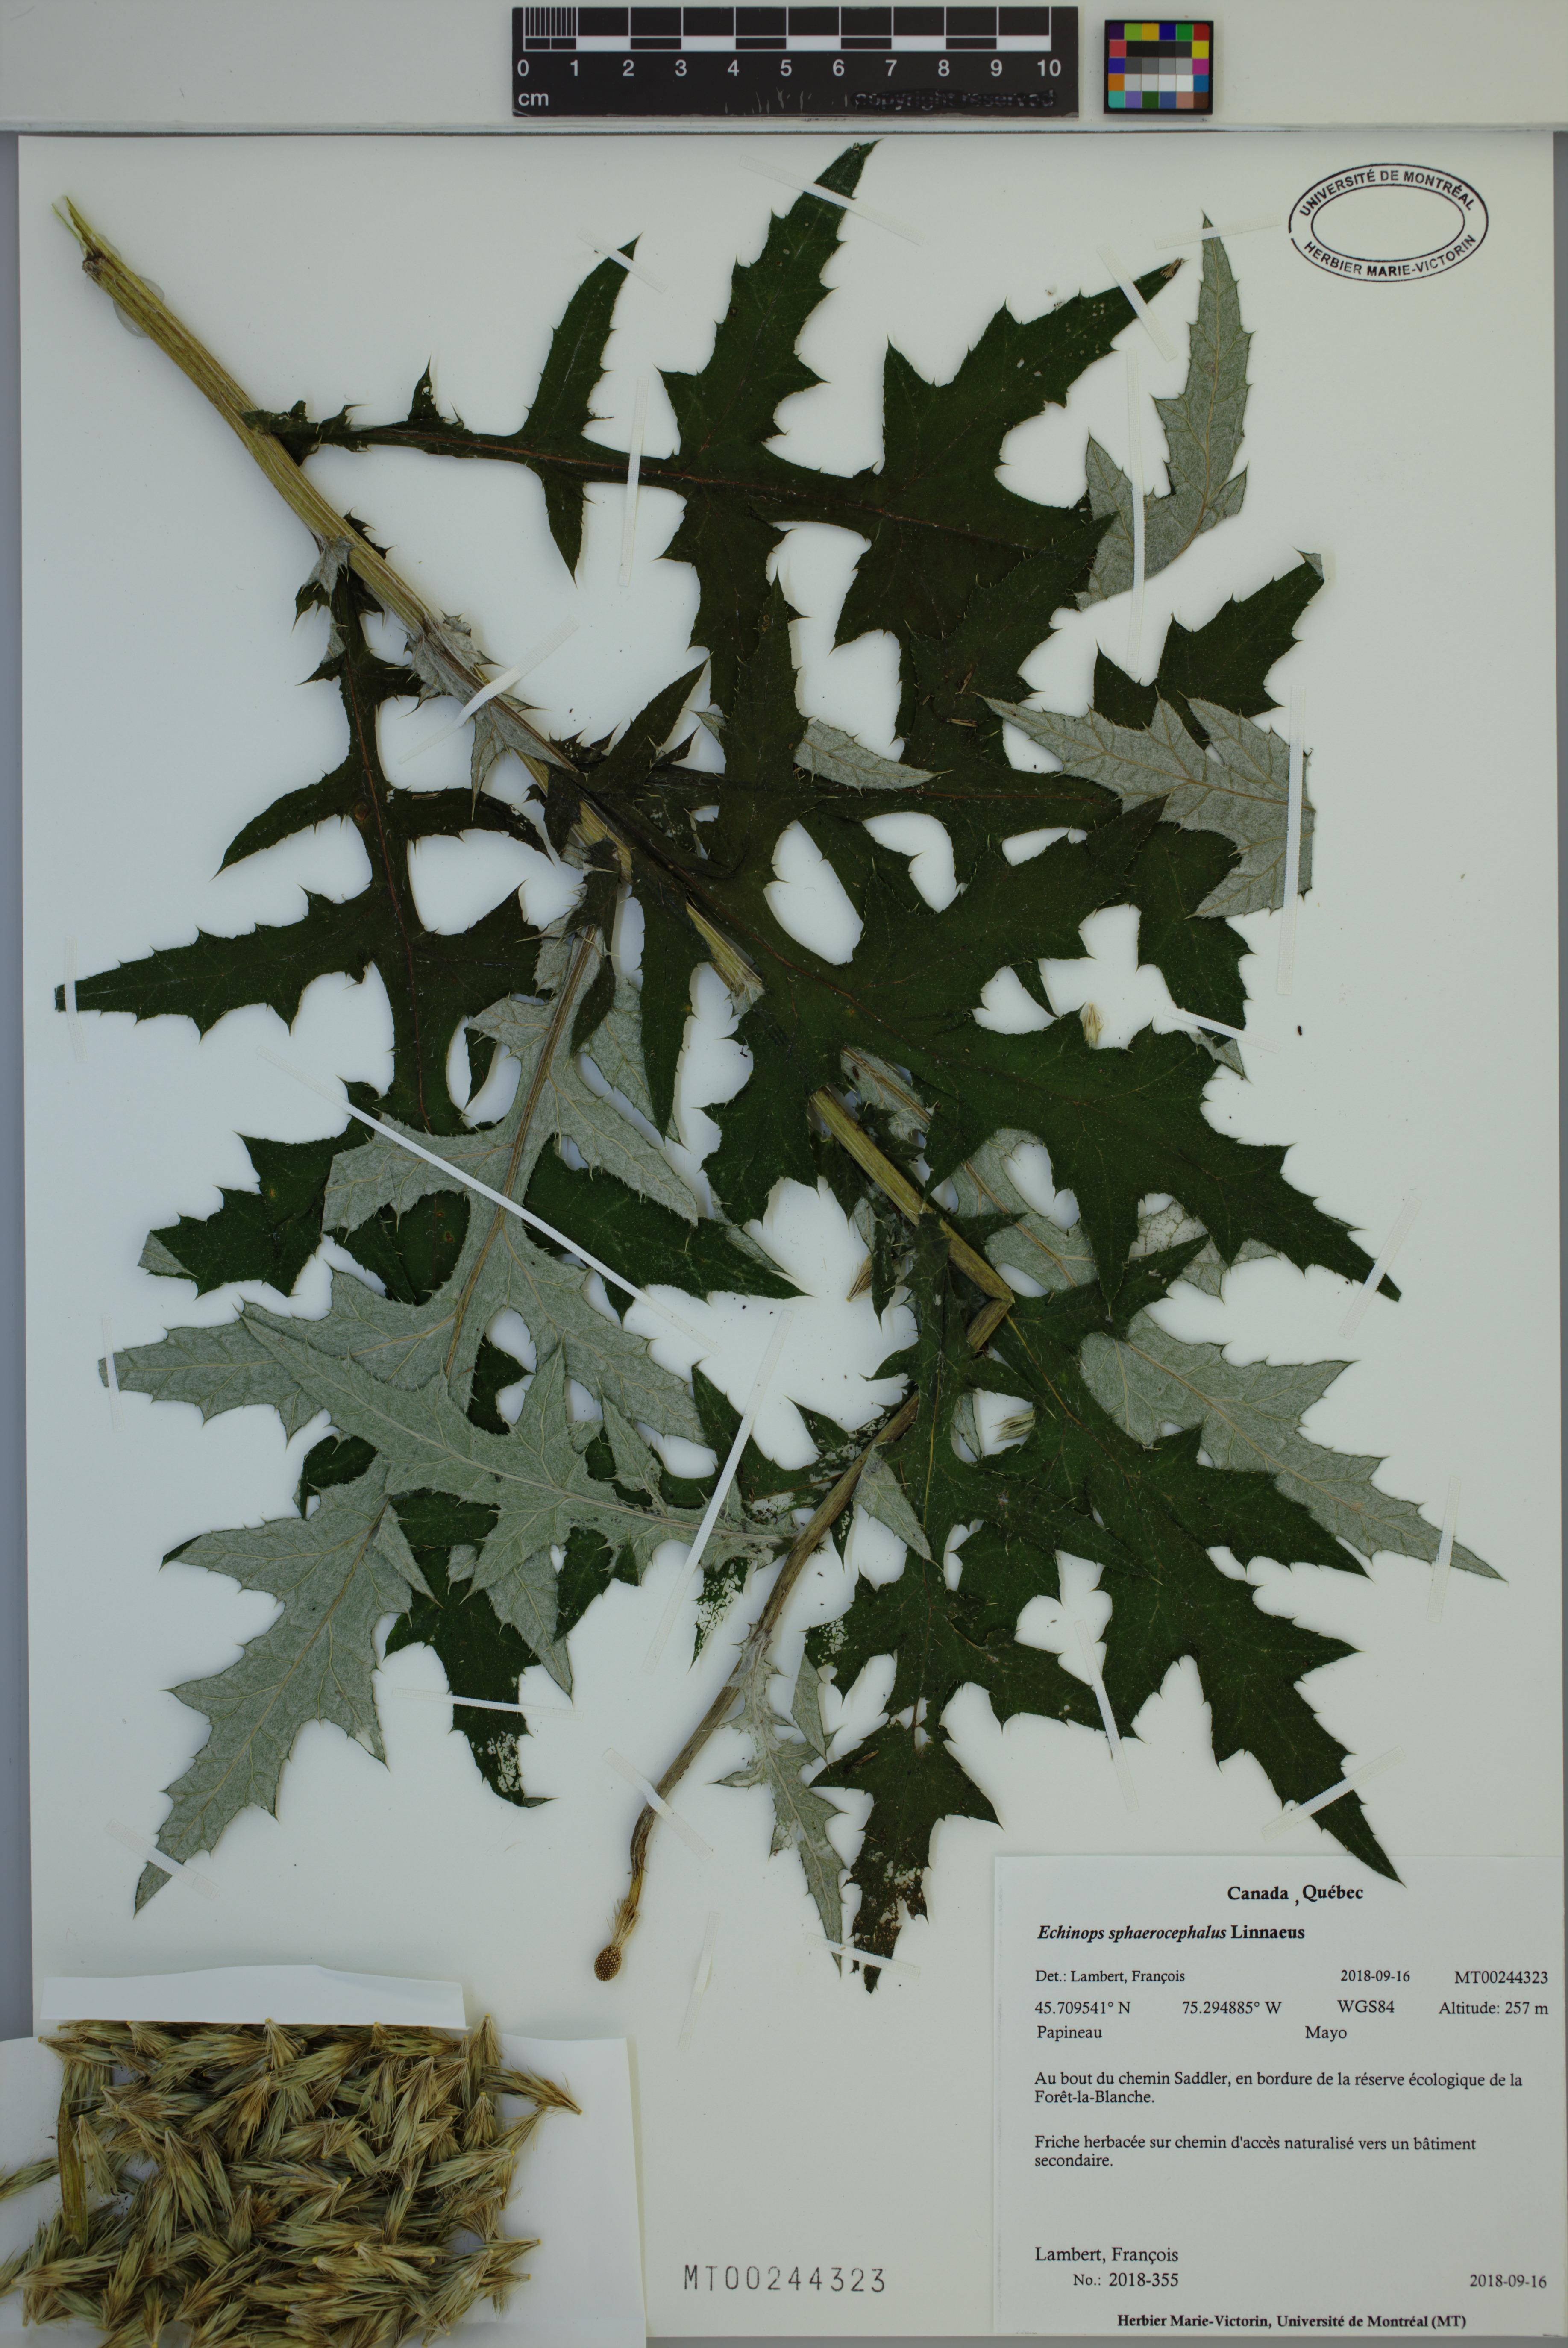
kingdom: Plantae
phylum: Tracheophyta
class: Magnoliopsida
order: Asterales
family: Asteraceae
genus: Echinops
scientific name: Echinops sphaerocephalus
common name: Glandular globe-thistle
